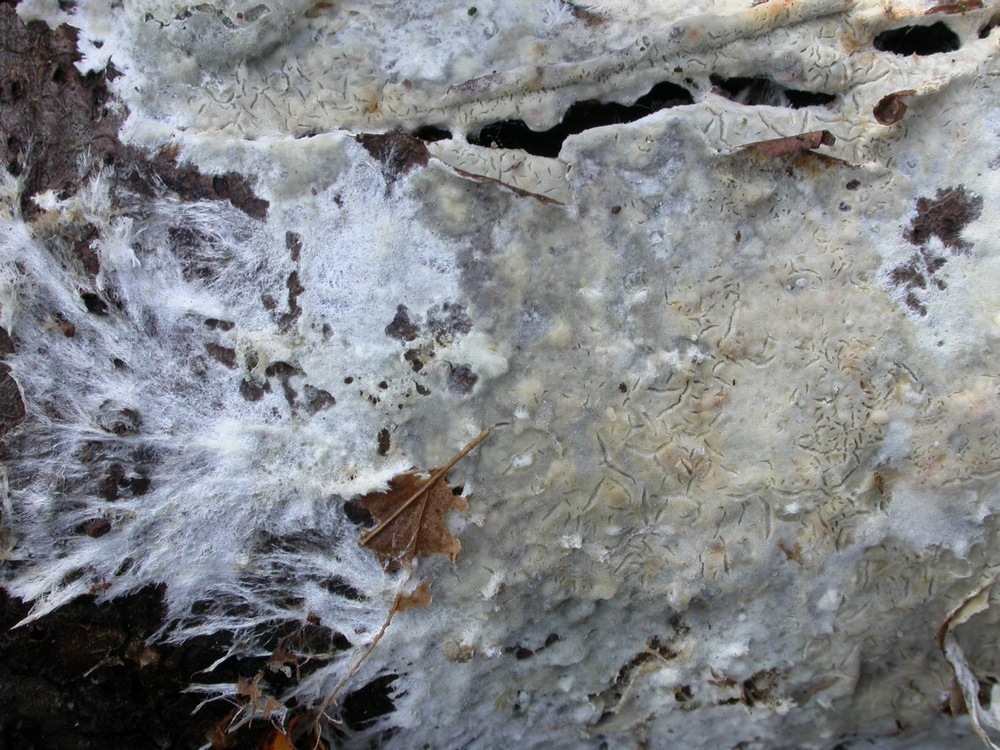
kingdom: Fungi
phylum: Basidiomycota
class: Agaricomycetes
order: Polyporales
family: Phanerochaetaceae
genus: Phanerochaete
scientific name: Phanerochaete velutina
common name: dunet randtråd
